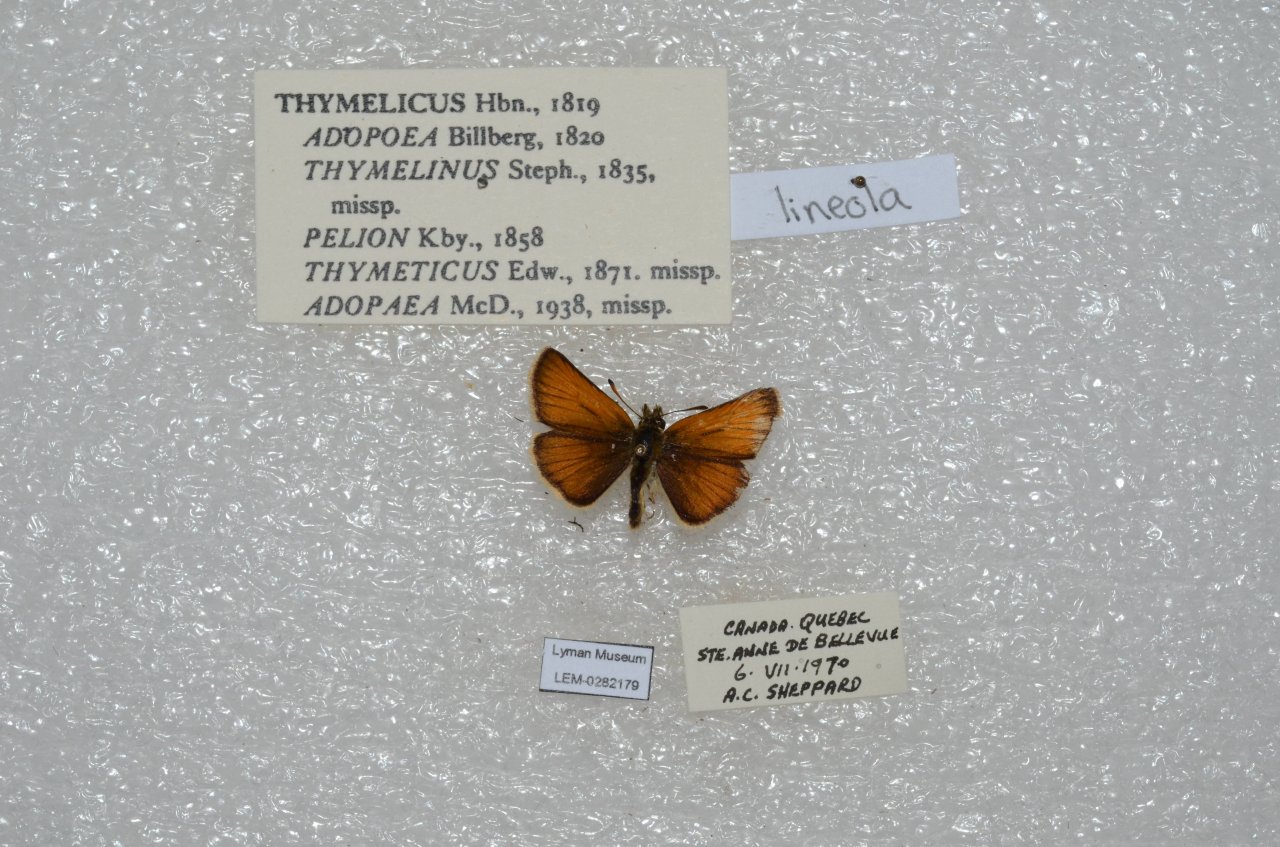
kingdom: Animalia
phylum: Arthropoda
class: Insecta
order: Lepidoptera
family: Hesperiidae
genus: Thymelicus
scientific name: Thymelicus lineola
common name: European Skipper
